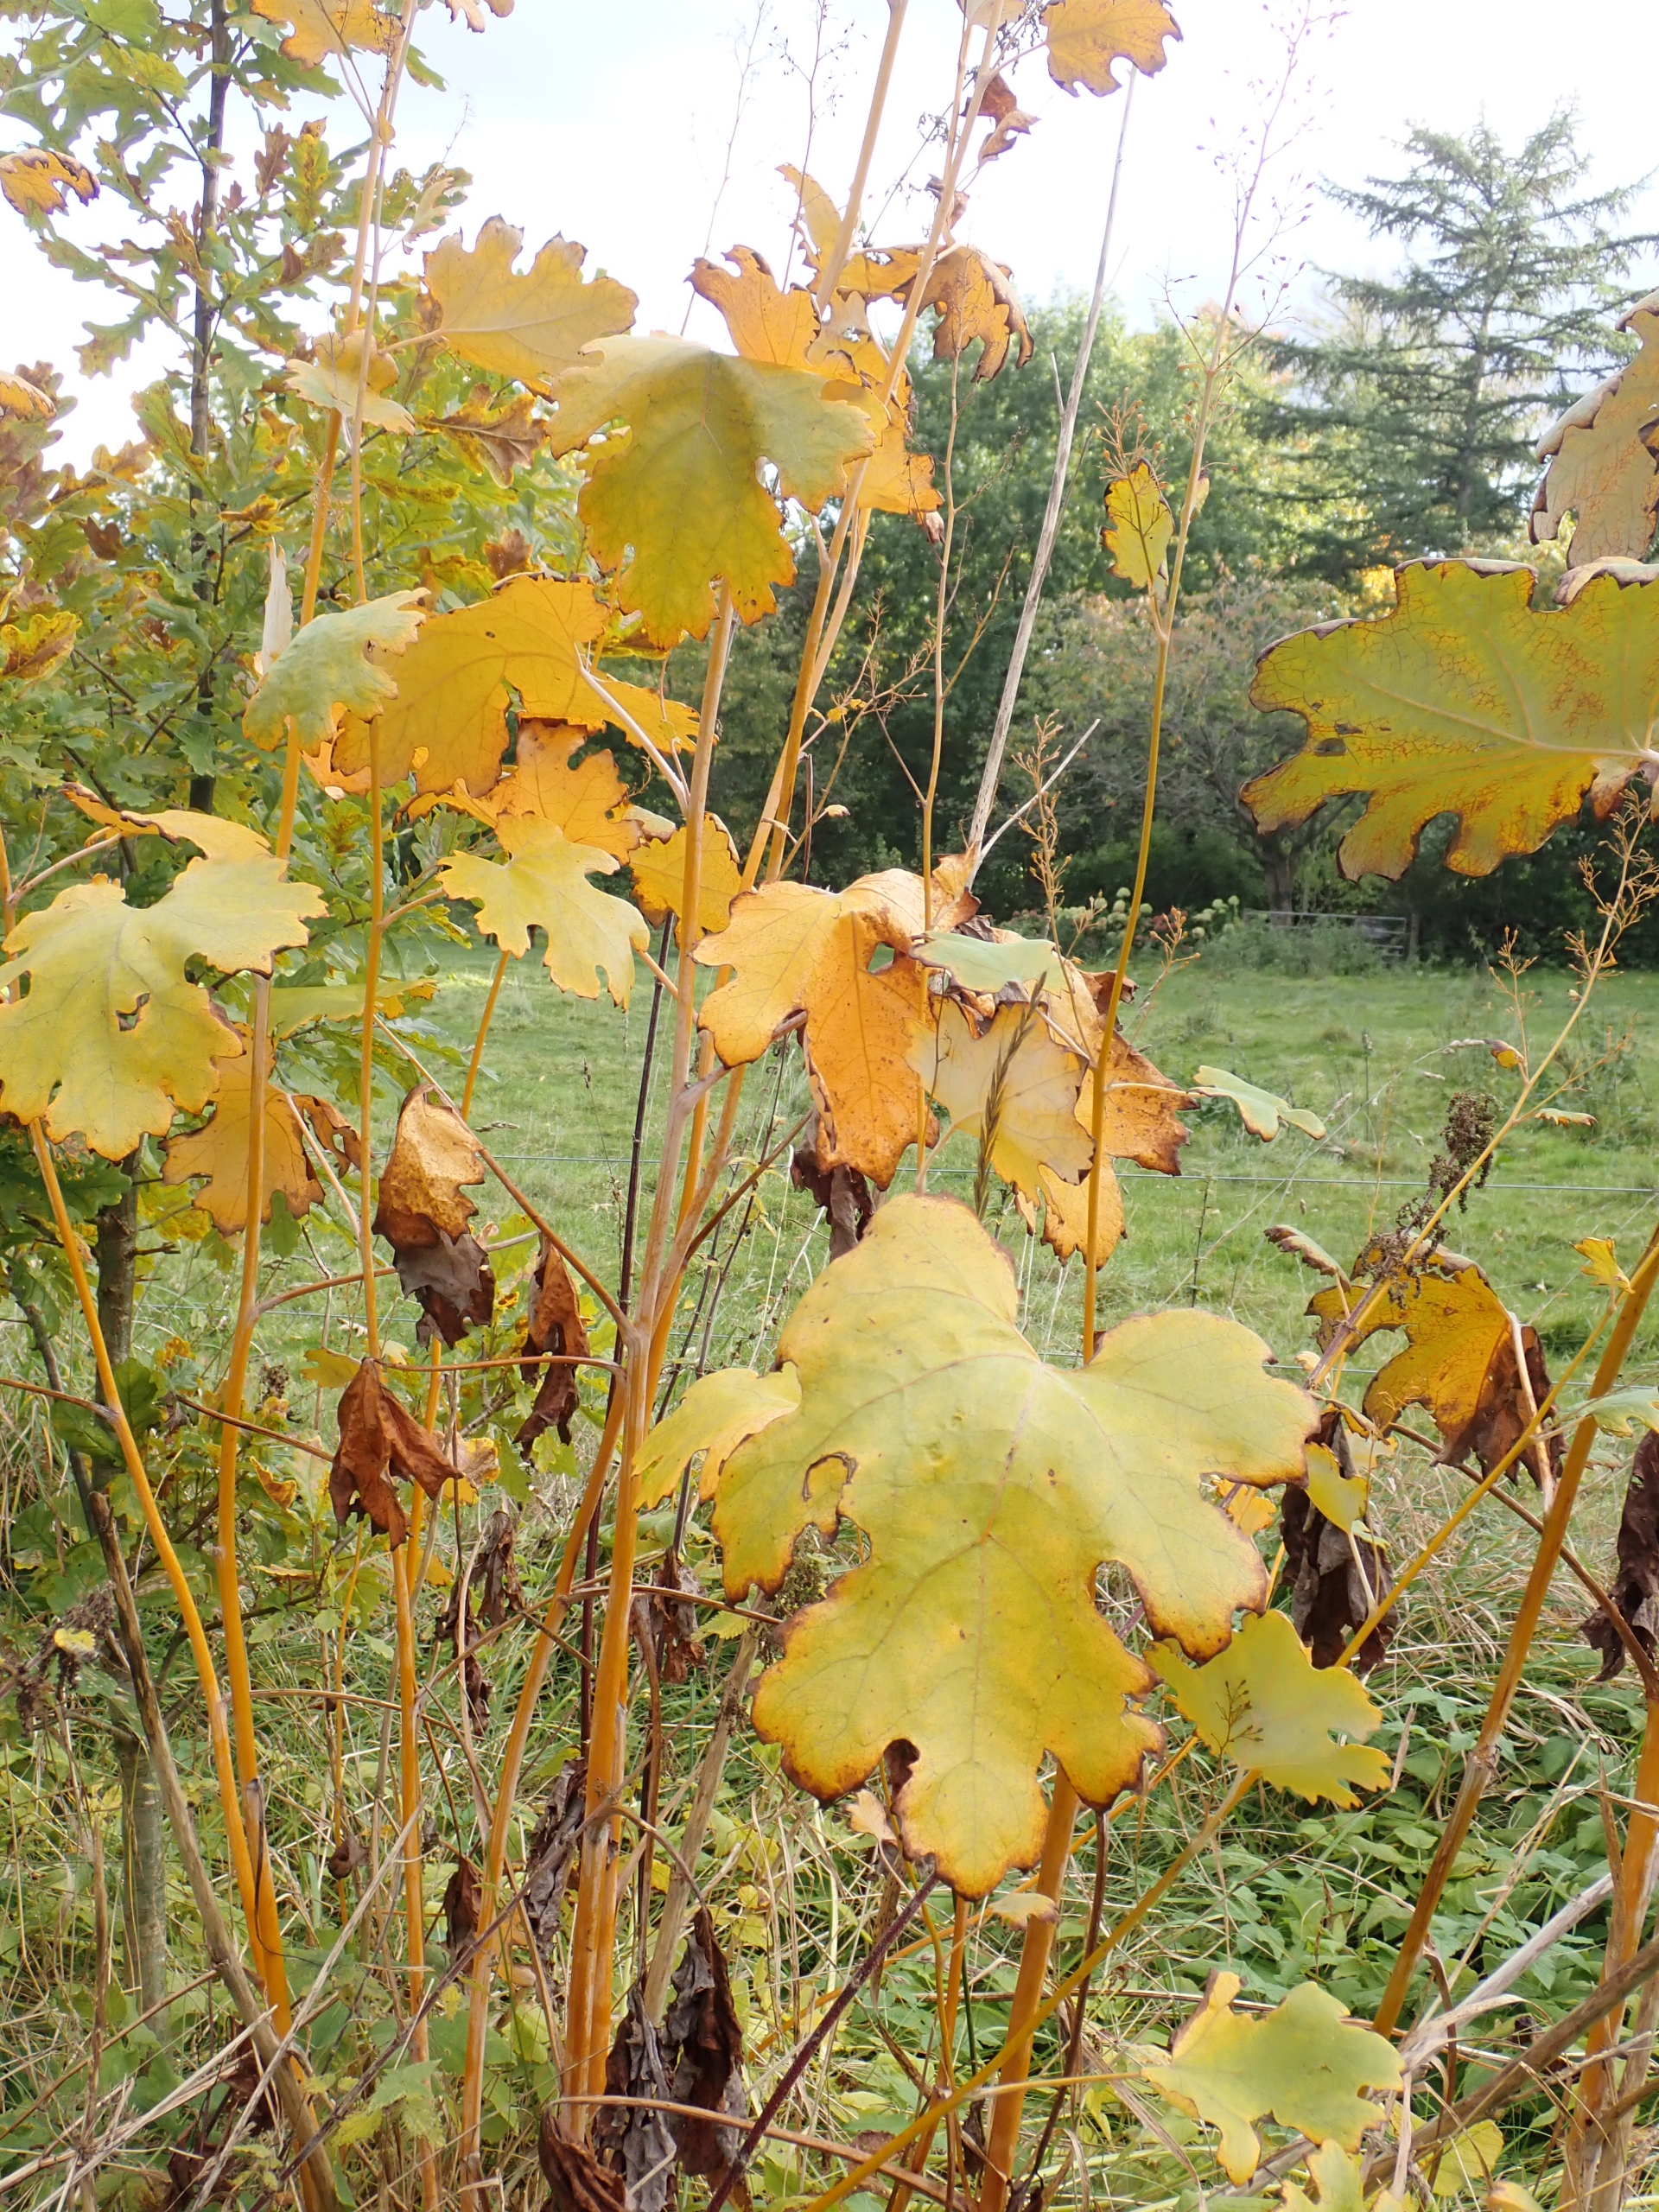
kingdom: Plantae
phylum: Tracheophyta
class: Magnoliopsida
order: Ranunculales
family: Papaveraceae
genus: Macleaya
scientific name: Macleaya kewensis
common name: Jodplante
